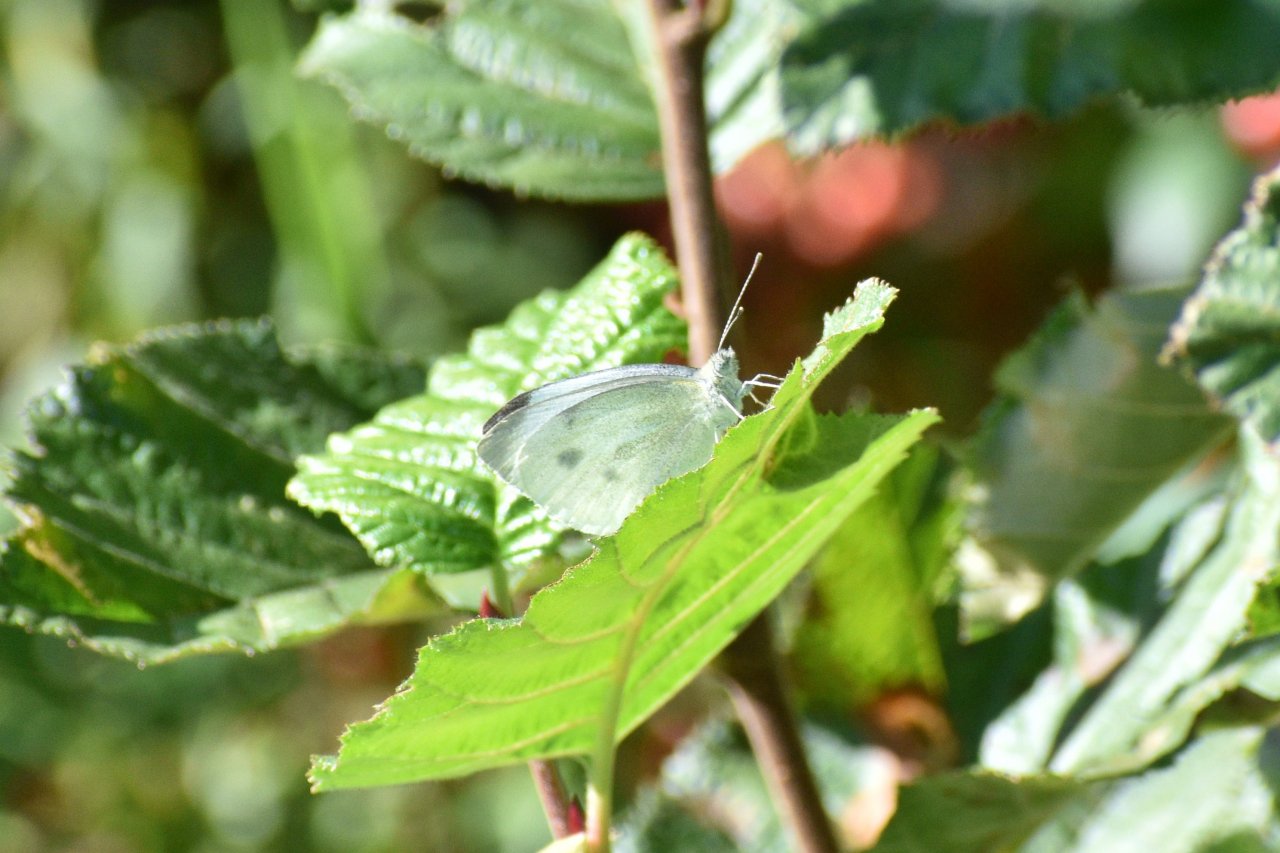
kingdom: Animalia
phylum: Arthropoda
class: Insecta
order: Lepidoptera
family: Pieridae
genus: Pieris
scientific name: Pieris rapae
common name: Cabbage White
